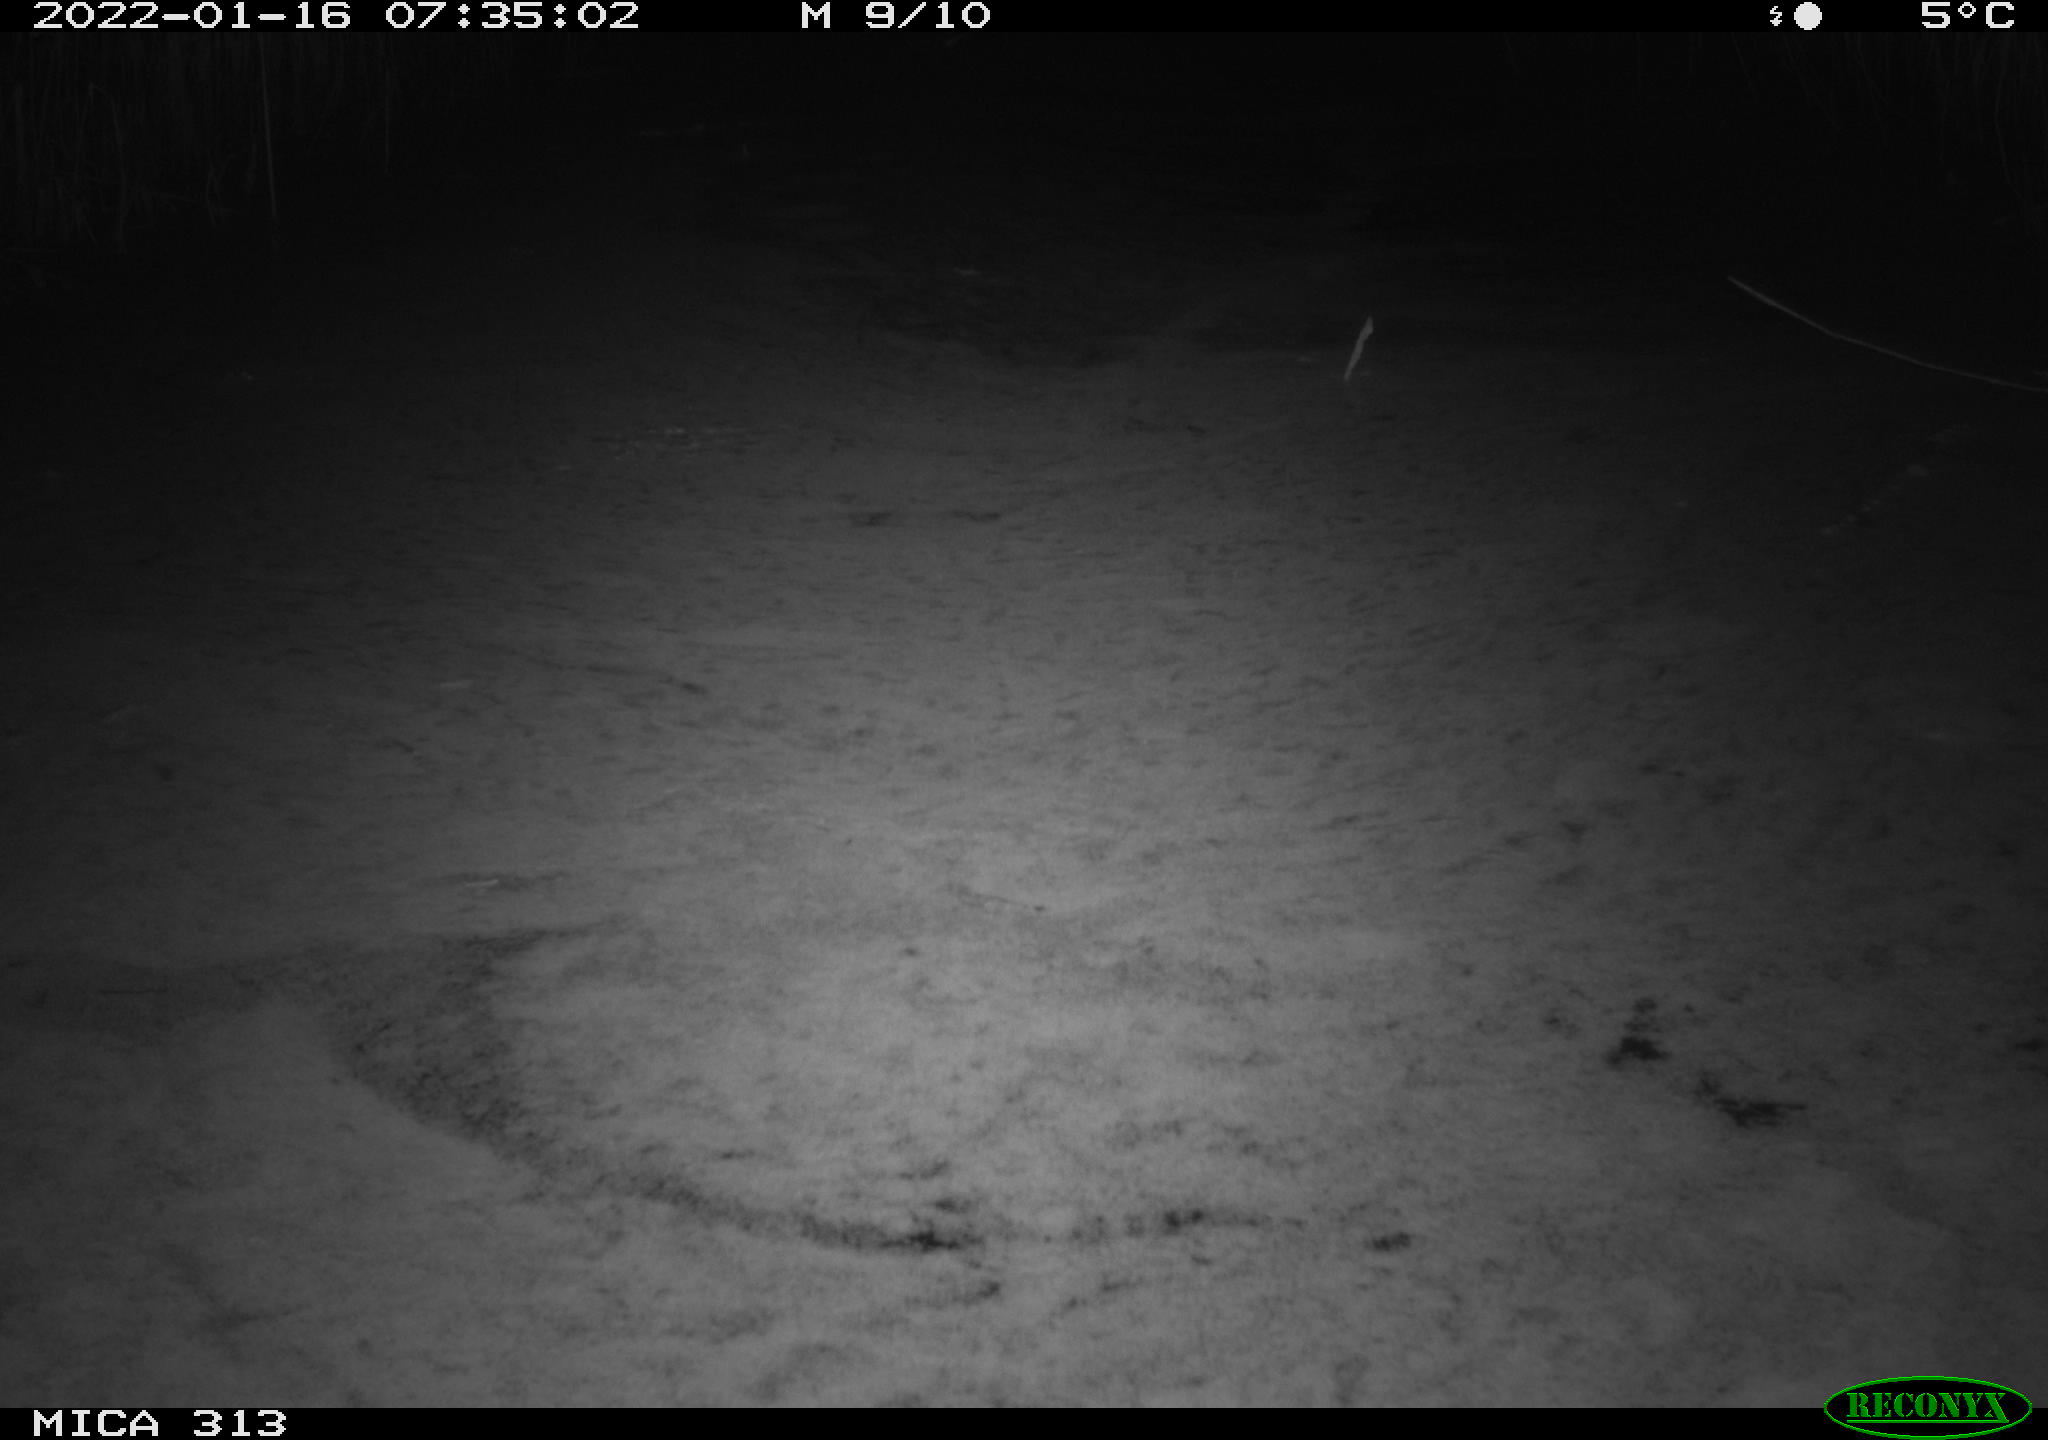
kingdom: Animalia
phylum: Chordata
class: Aves
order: Gruiformes
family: Rallidae
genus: Gallinula
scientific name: Gallinula chloropus
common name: Common moorhen
